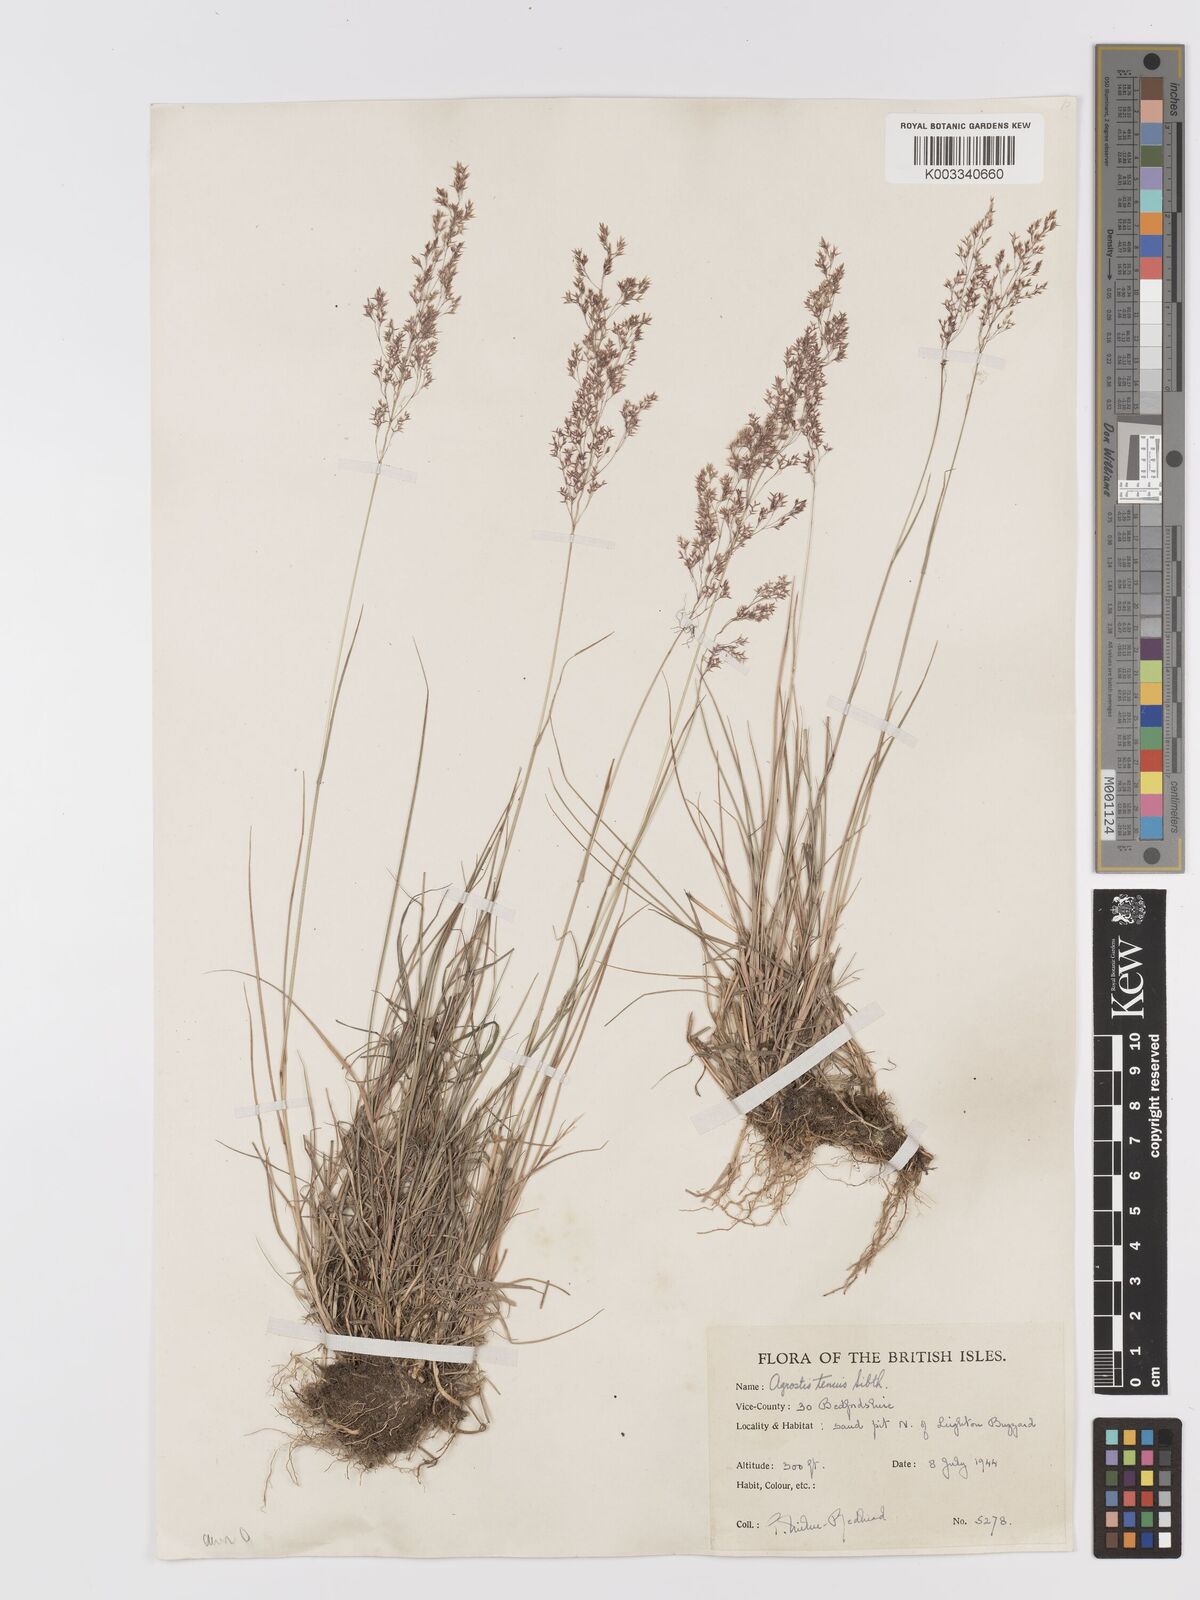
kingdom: Plantae
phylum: Tracheophyta
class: Liliopsida
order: Poales
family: Poaceae
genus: Agrostis
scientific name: Agrostis capillaris
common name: Colonial bentgrass
